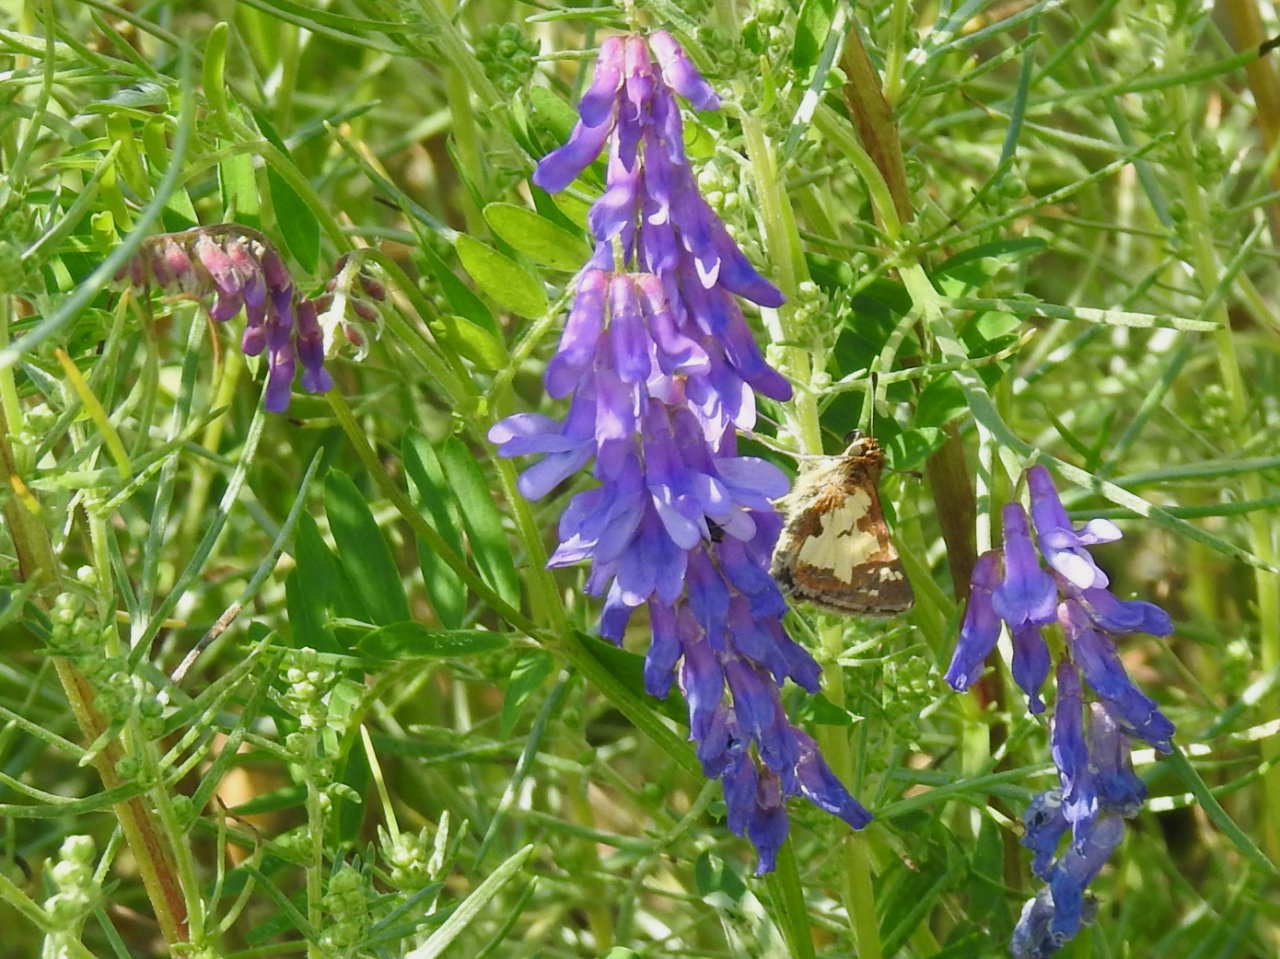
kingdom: Animalia
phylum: Arthropoda
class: Insecta
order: Lepidoptera
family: Hesperiidae
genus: Polites
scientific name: Polites coras
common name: Peck's Skipper
